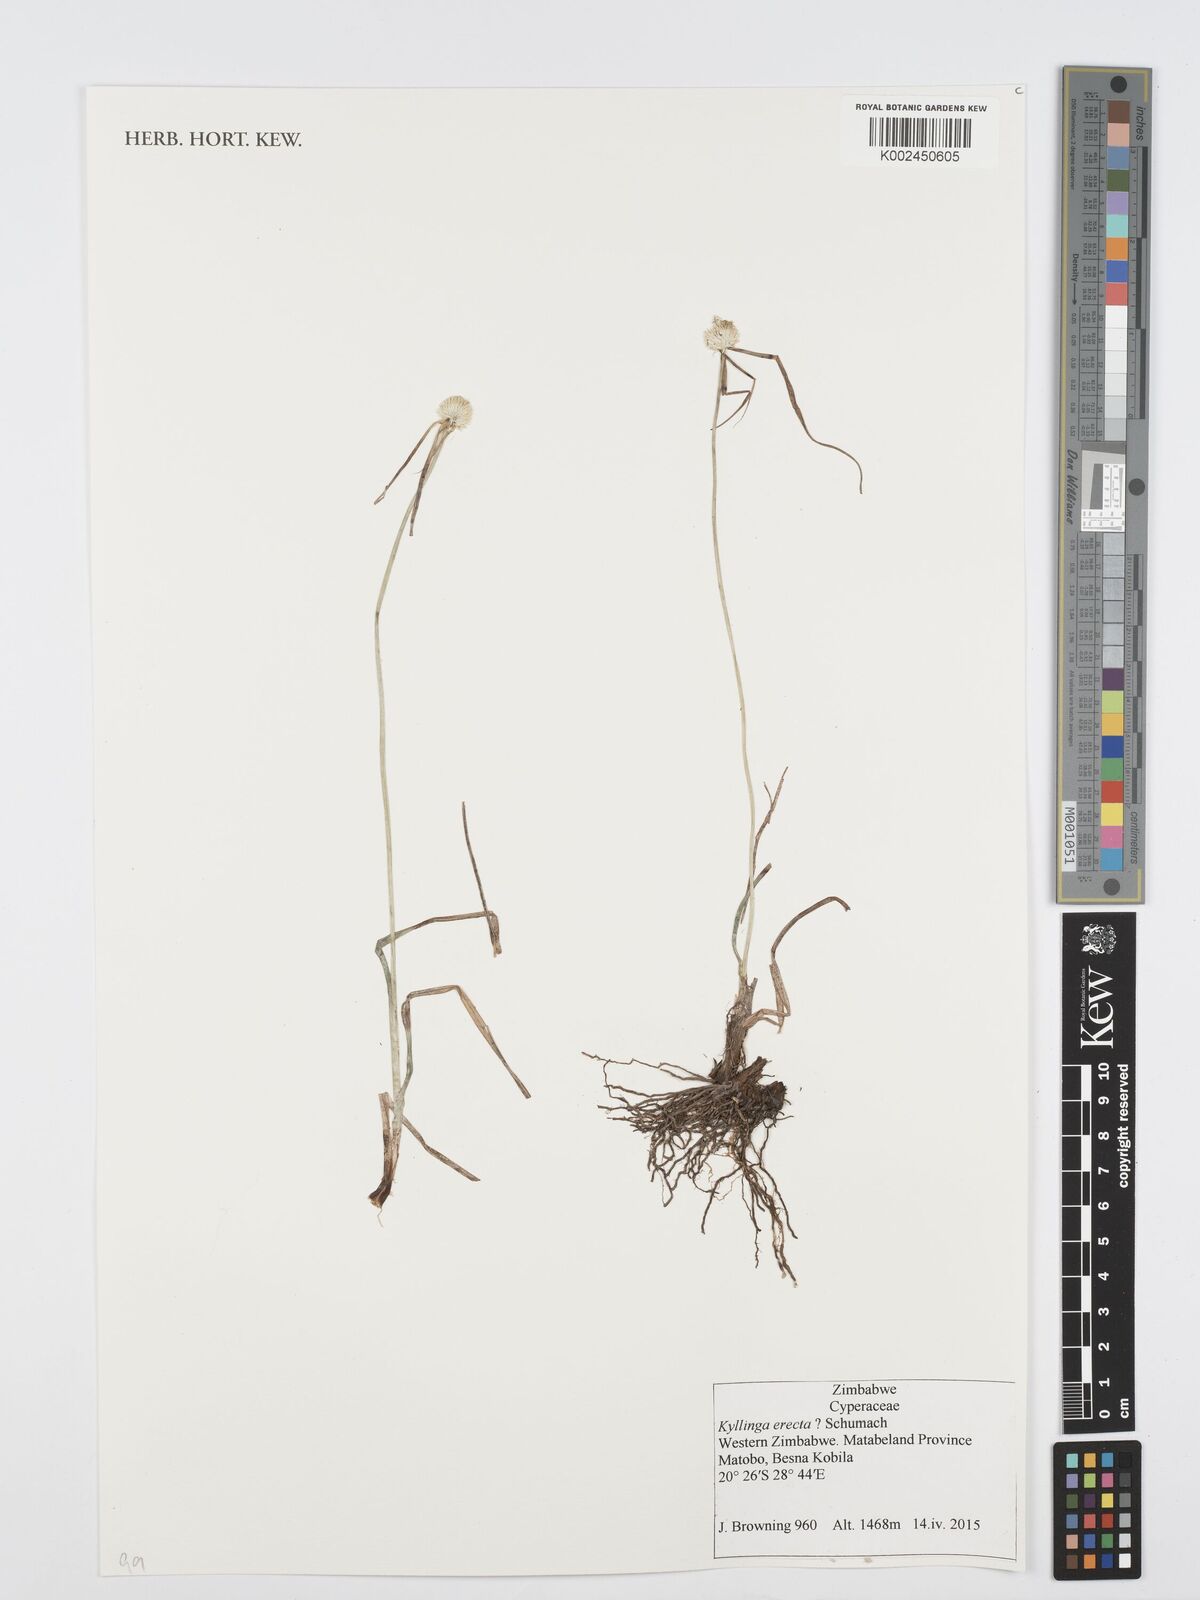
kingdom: Plantae
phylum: Tracheophyta
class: Liliopsida
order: Poales
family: Cyperaceae
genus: Cyperus
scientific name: Cyperus erectus
